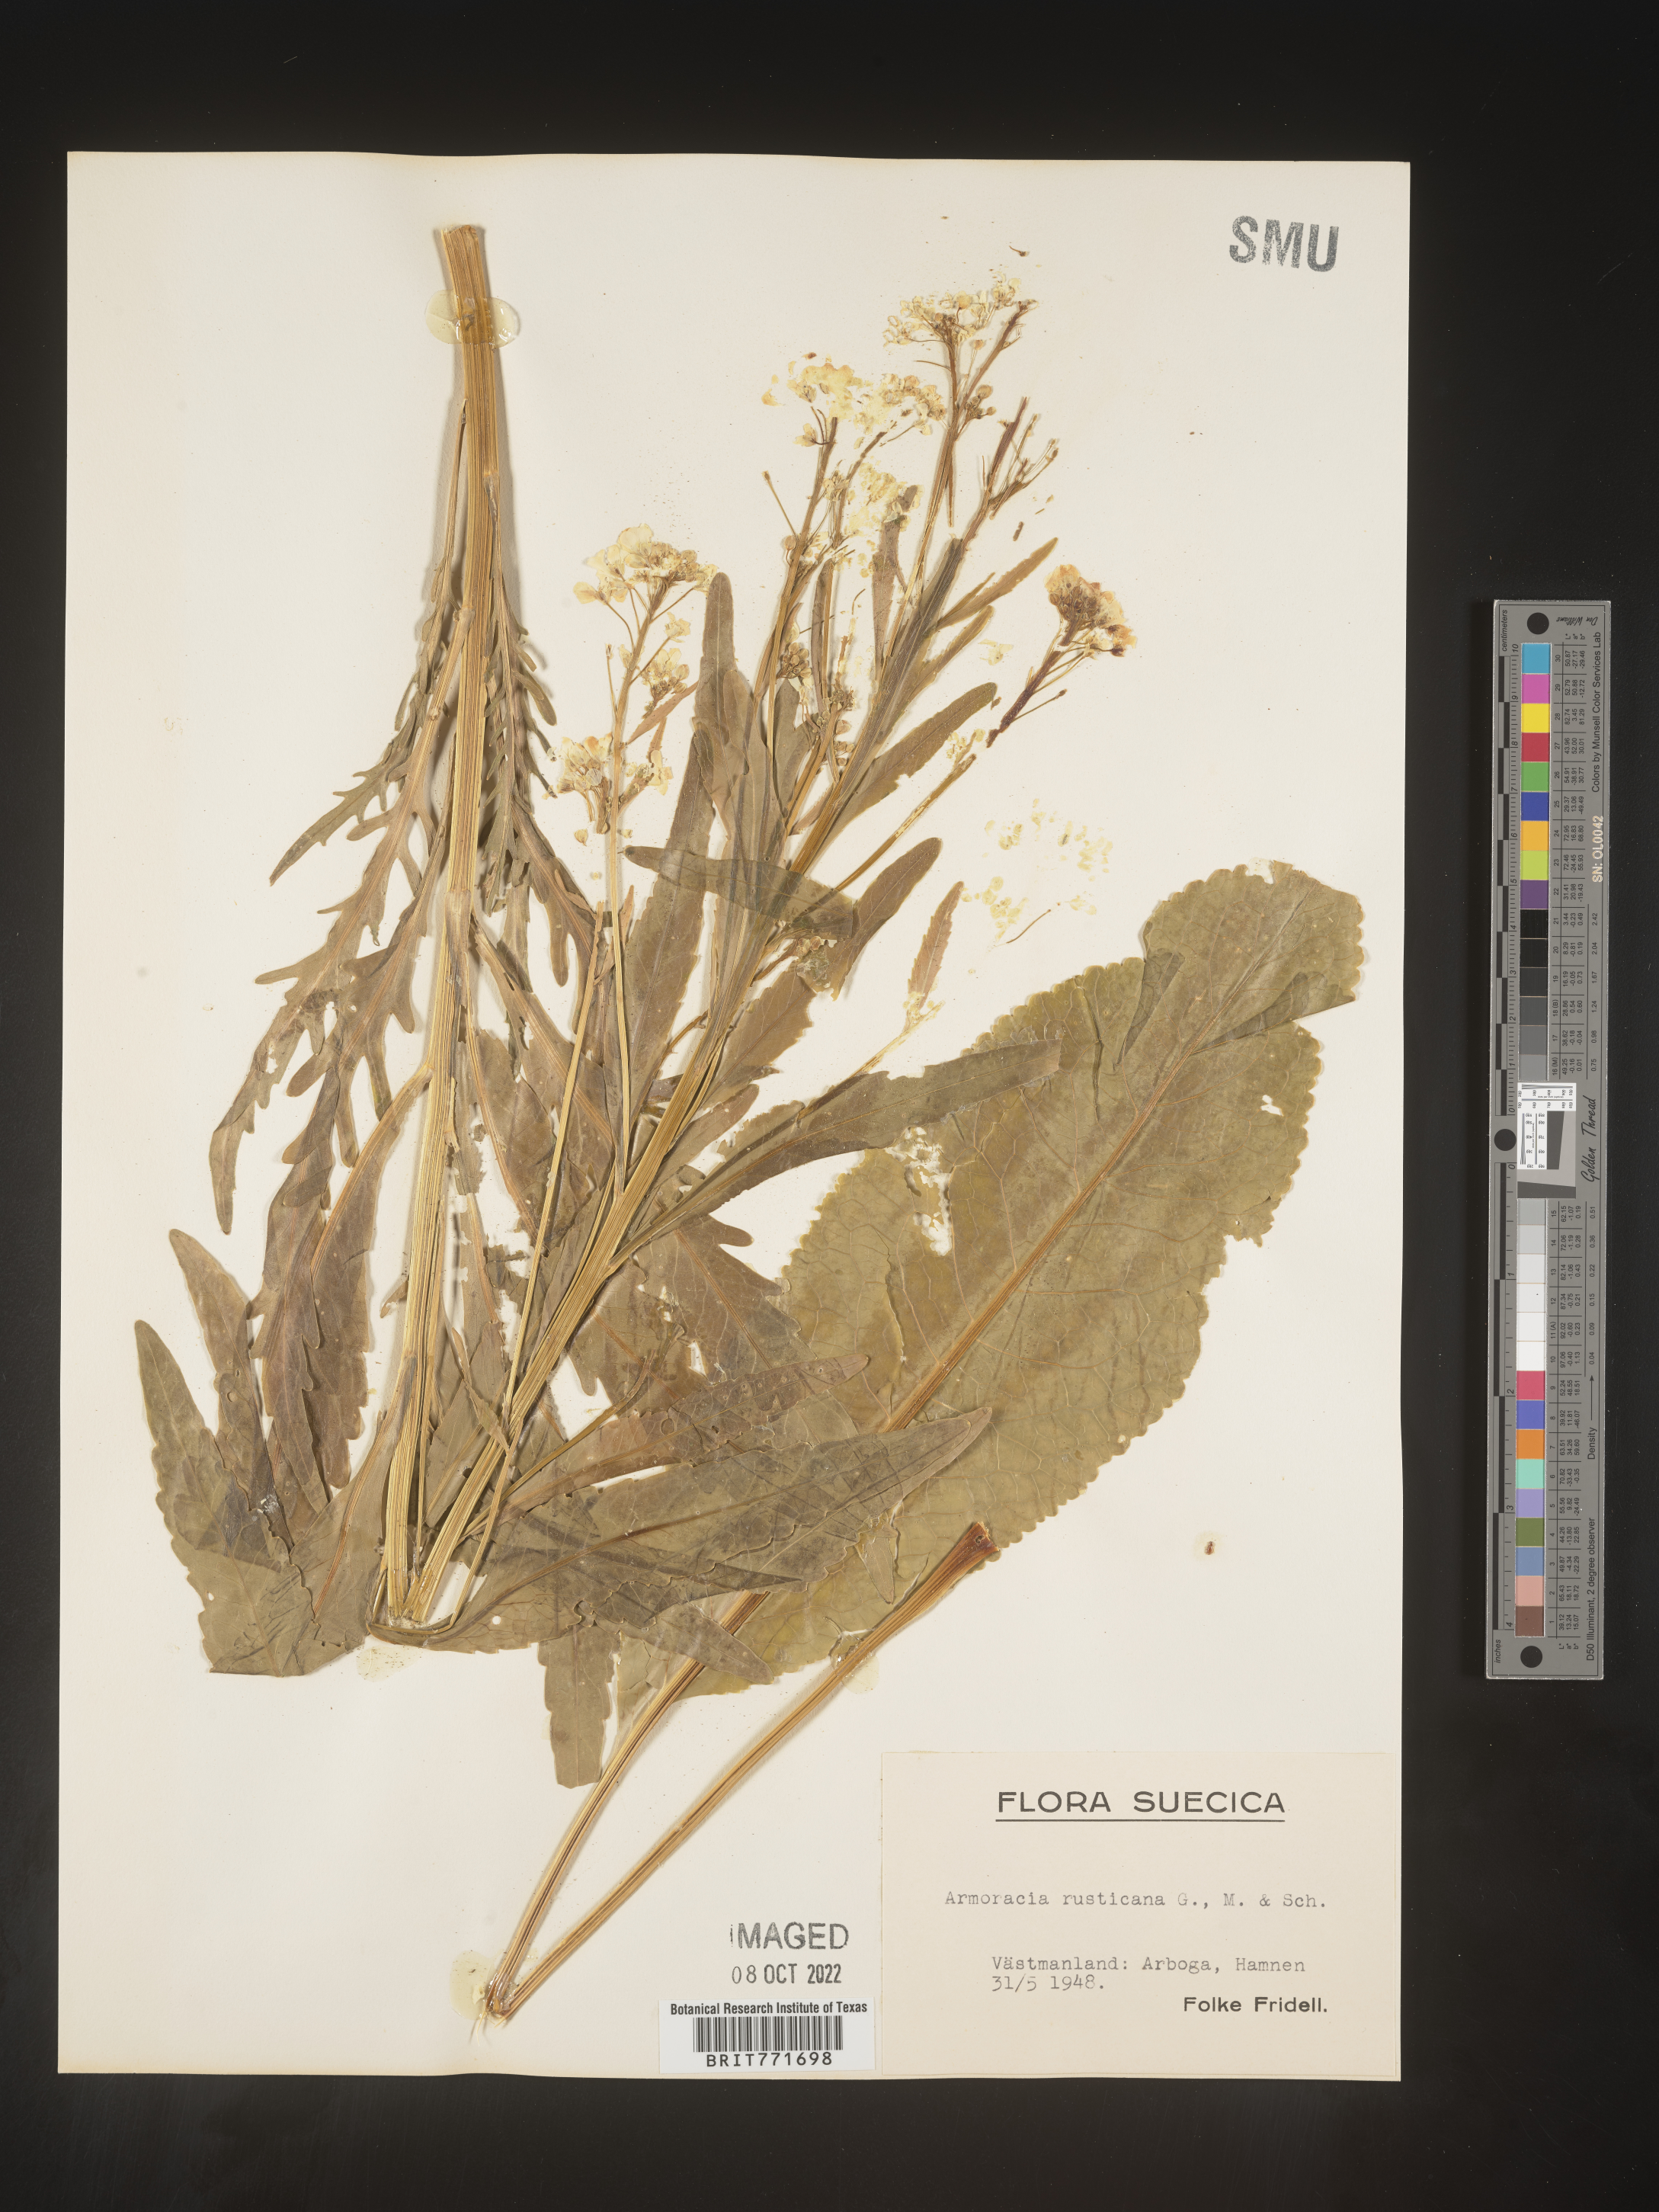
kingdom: Plantae
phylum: Tracheophyta
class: Magnoliopsida
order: Brassicales
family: Brassicaceae
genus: Armoracia
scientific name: Armoracia
